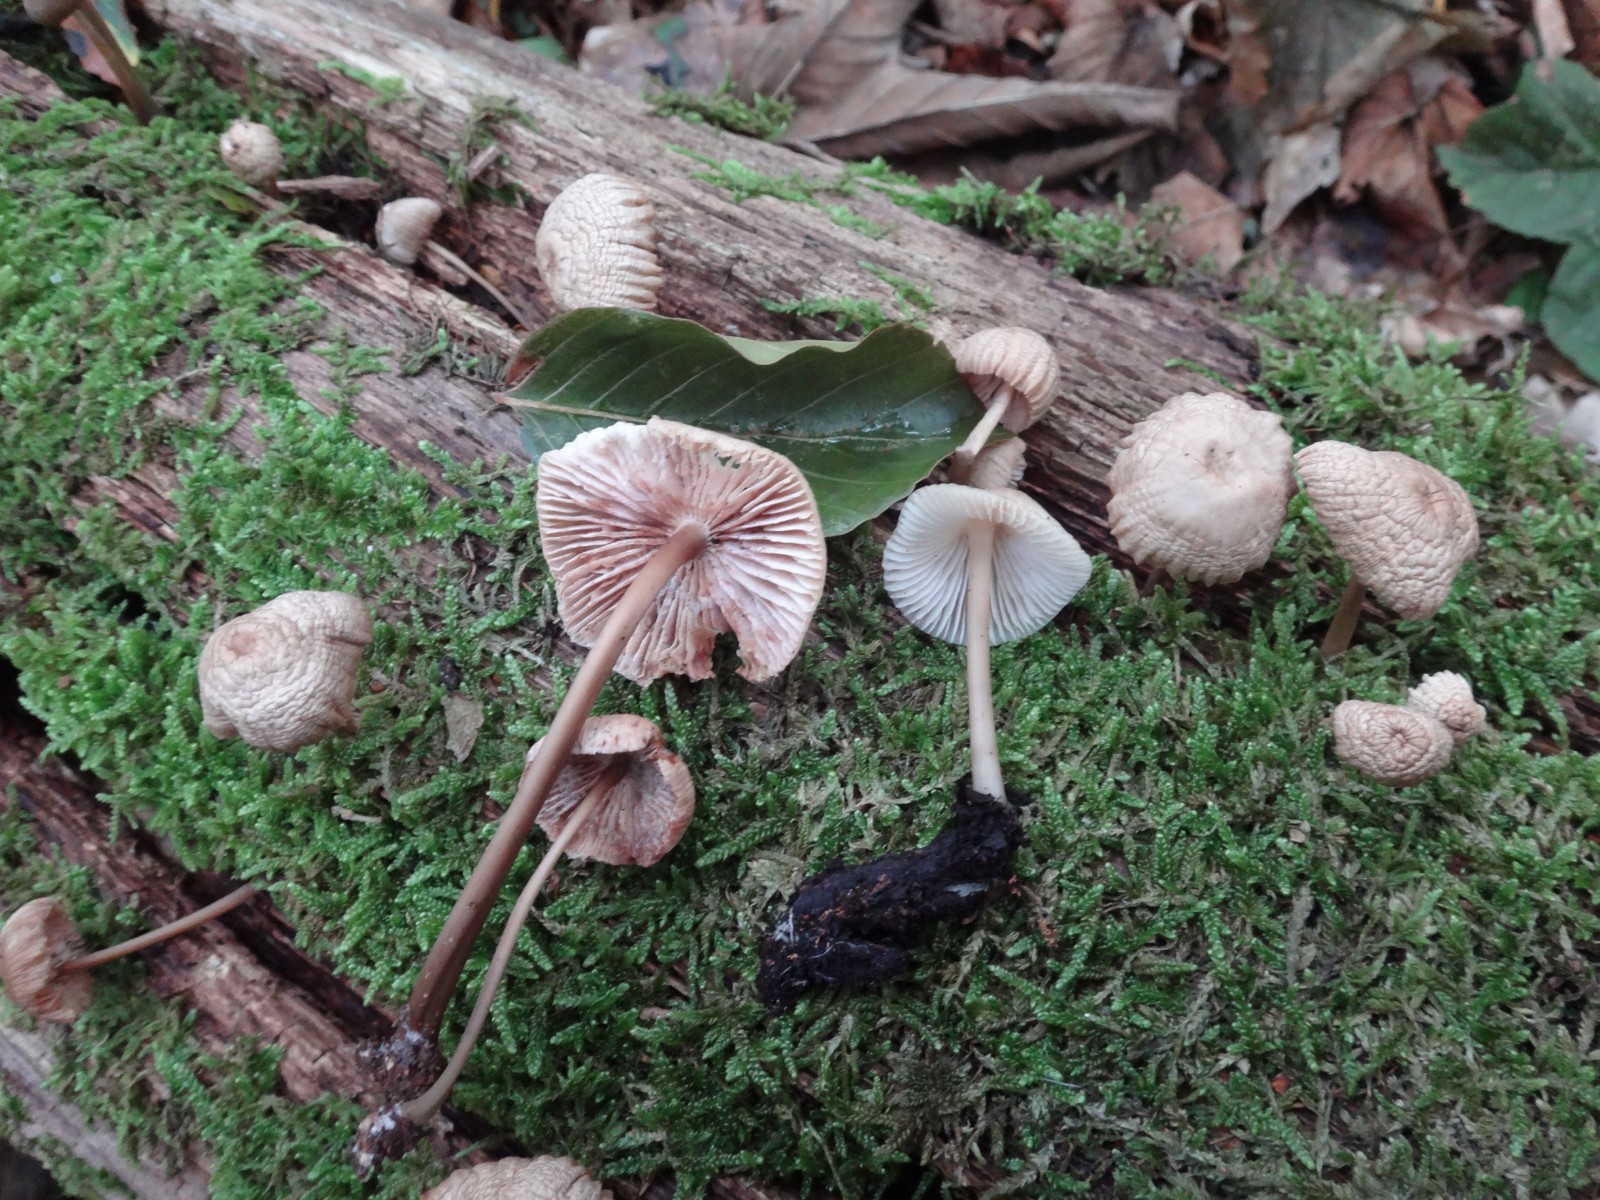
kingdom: Fungi
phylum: Basidiomycota
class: Agaricomycetes
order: Agaricales
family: Mycenaceae
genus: Mycena
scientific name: Mycena galericulata
